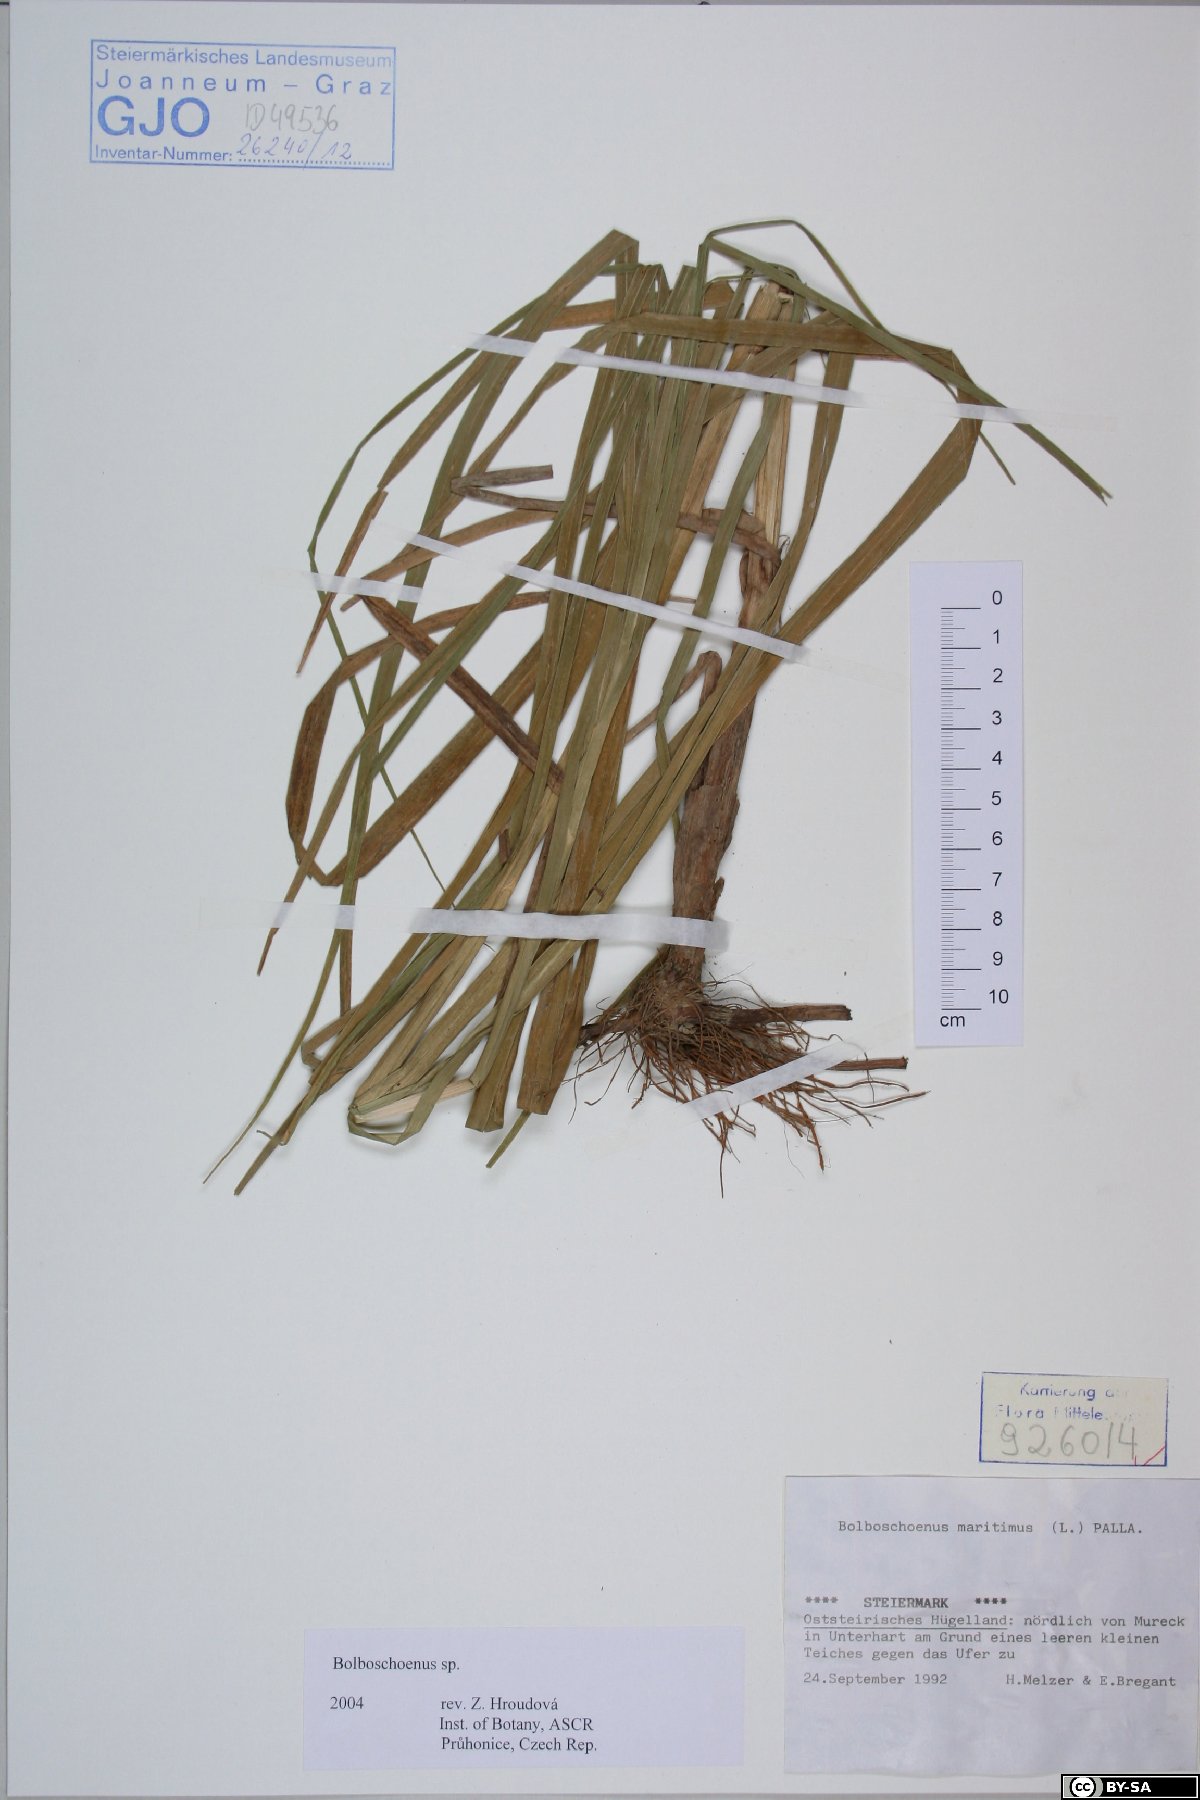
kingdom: Plantae
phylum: Tracheophyta
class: Liliopsida
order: Poales
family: Cyperaceae
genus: Bolboschoenus
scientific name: Bolboschoenus
